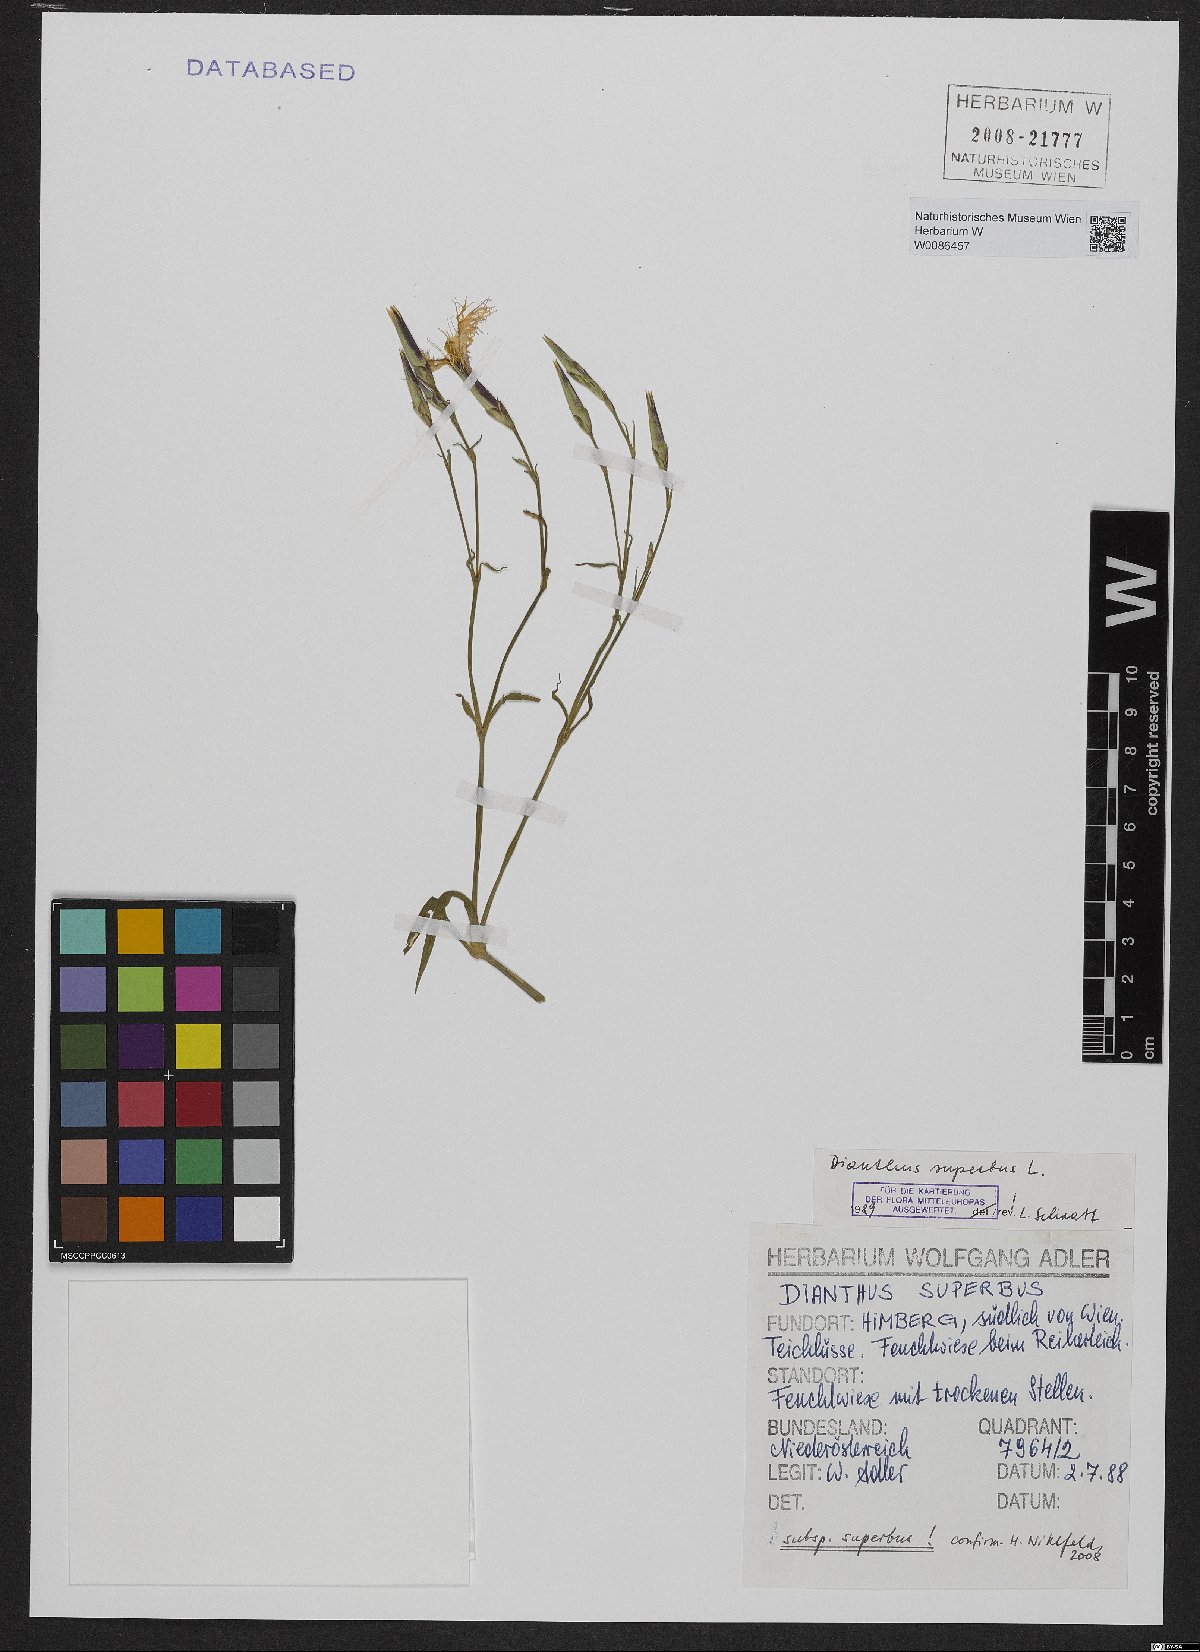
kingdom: Plantae
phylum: Tracheophyta
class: Magnoliopsida
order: Caryophyllales
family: Caryophyllaceae
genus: Dianthus
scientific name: Dianthus superbus
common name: Fringed pink
